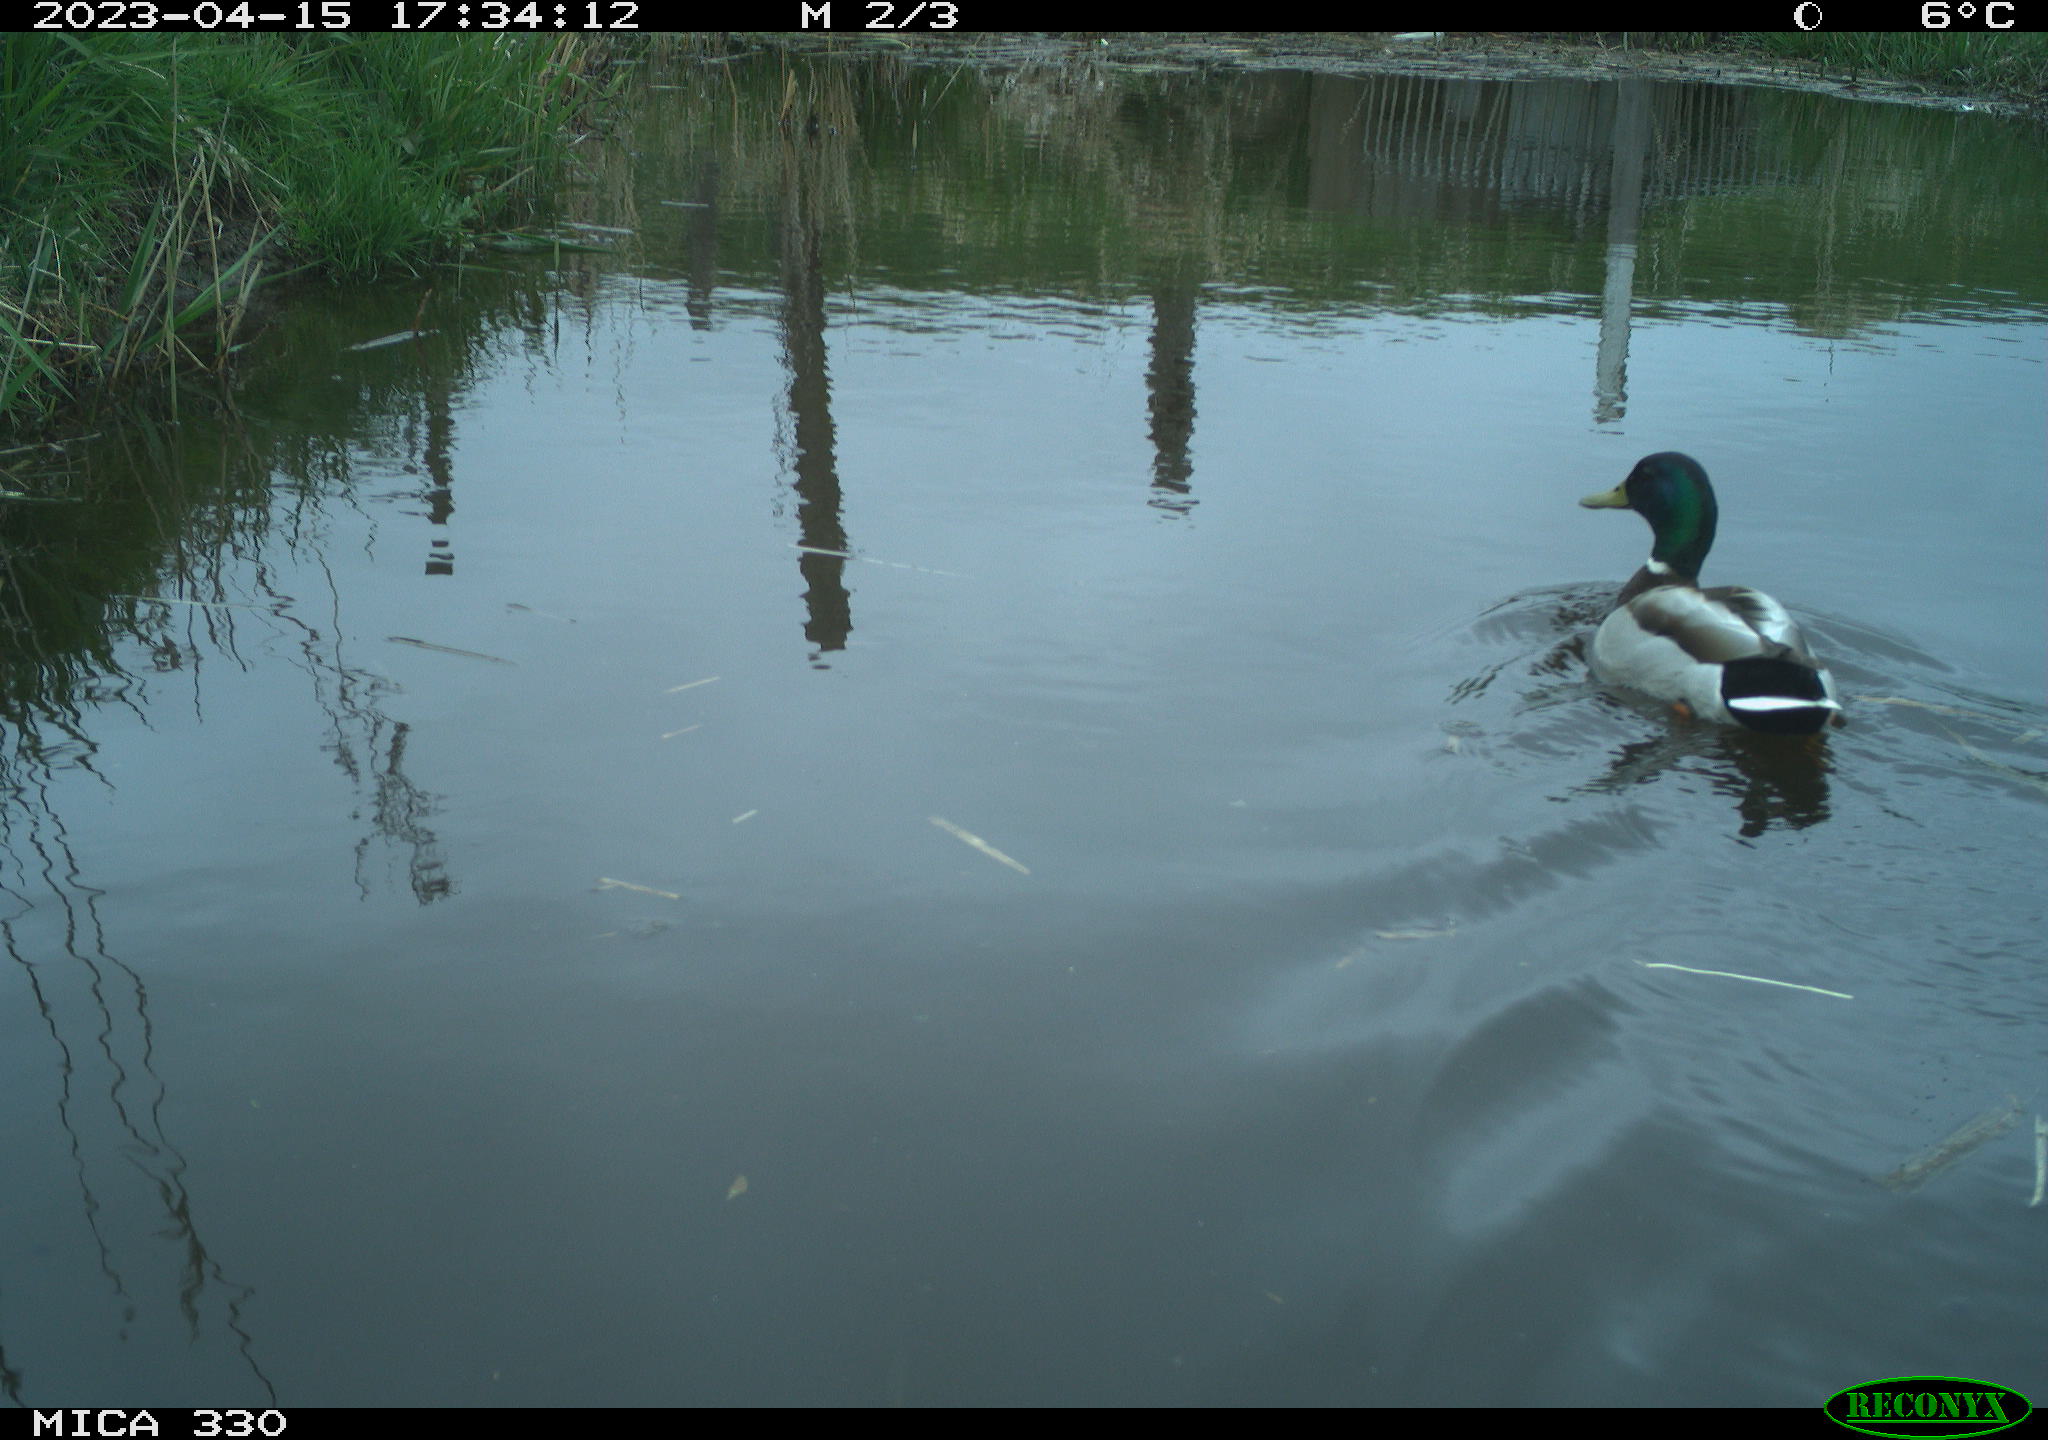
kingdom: Animalia
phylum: Chordata
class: Aves
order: Anseriformes
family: Anatidae
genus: Anas
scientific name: Anas
